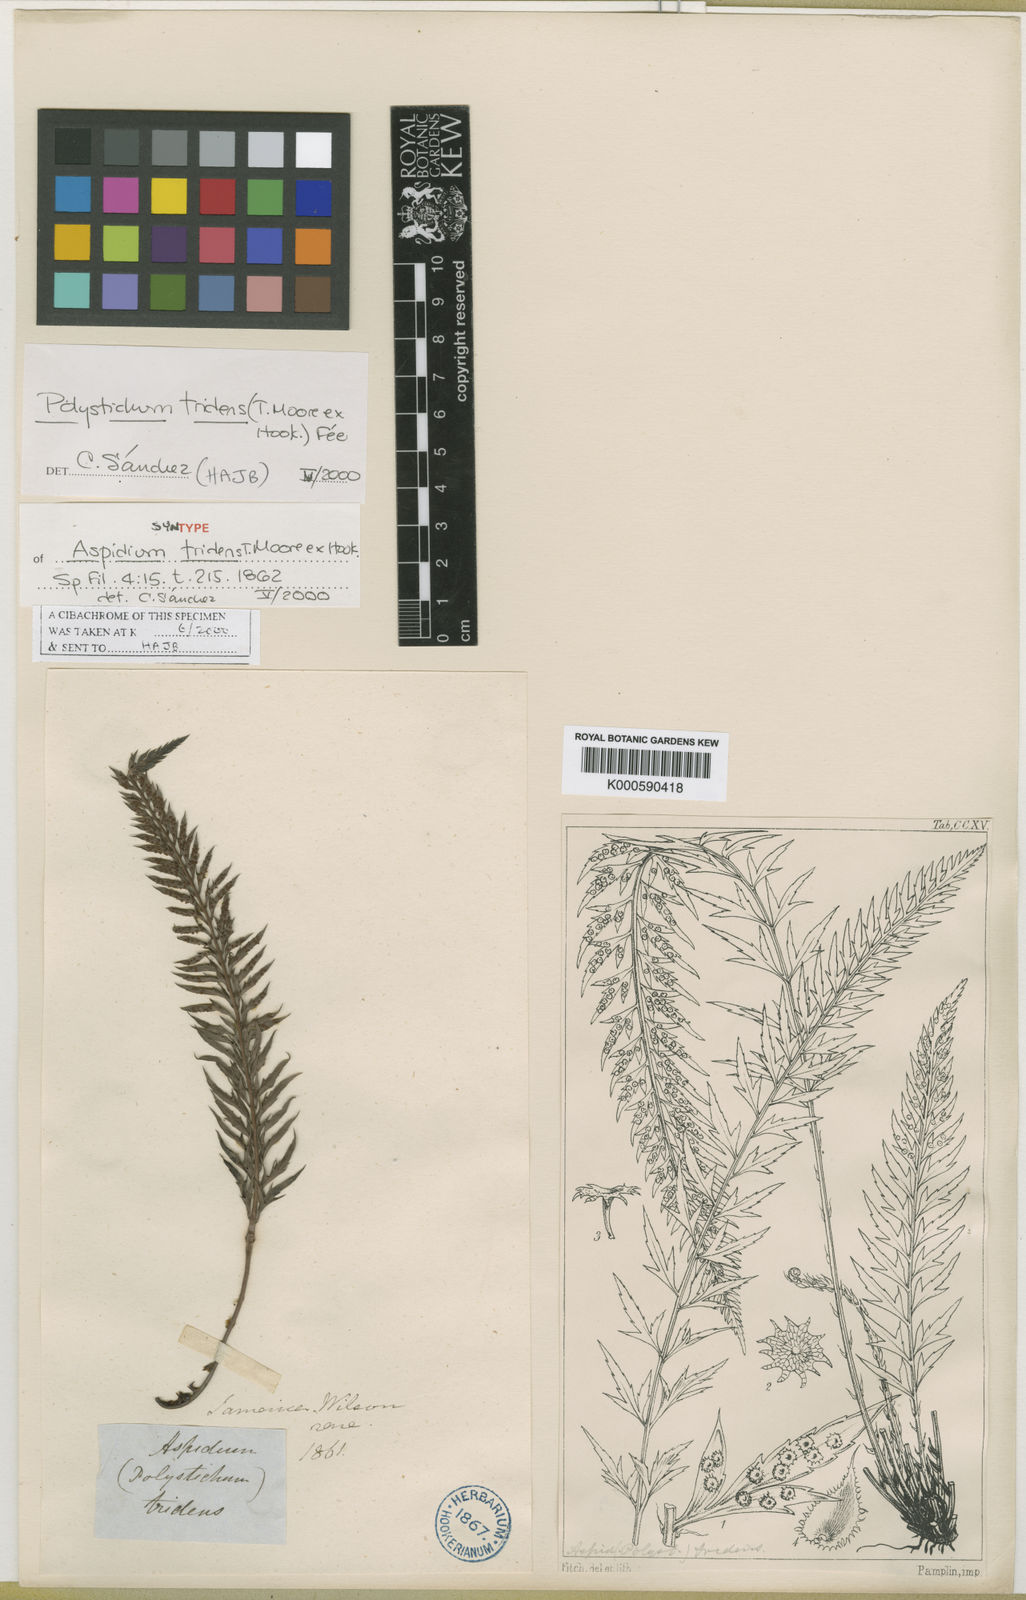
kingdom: Plantae
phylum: Tracheophyta
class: Polypodiopsida
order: Polypodiales
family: Dryopteridaceae
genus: Polystichum
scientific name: Polystichum
